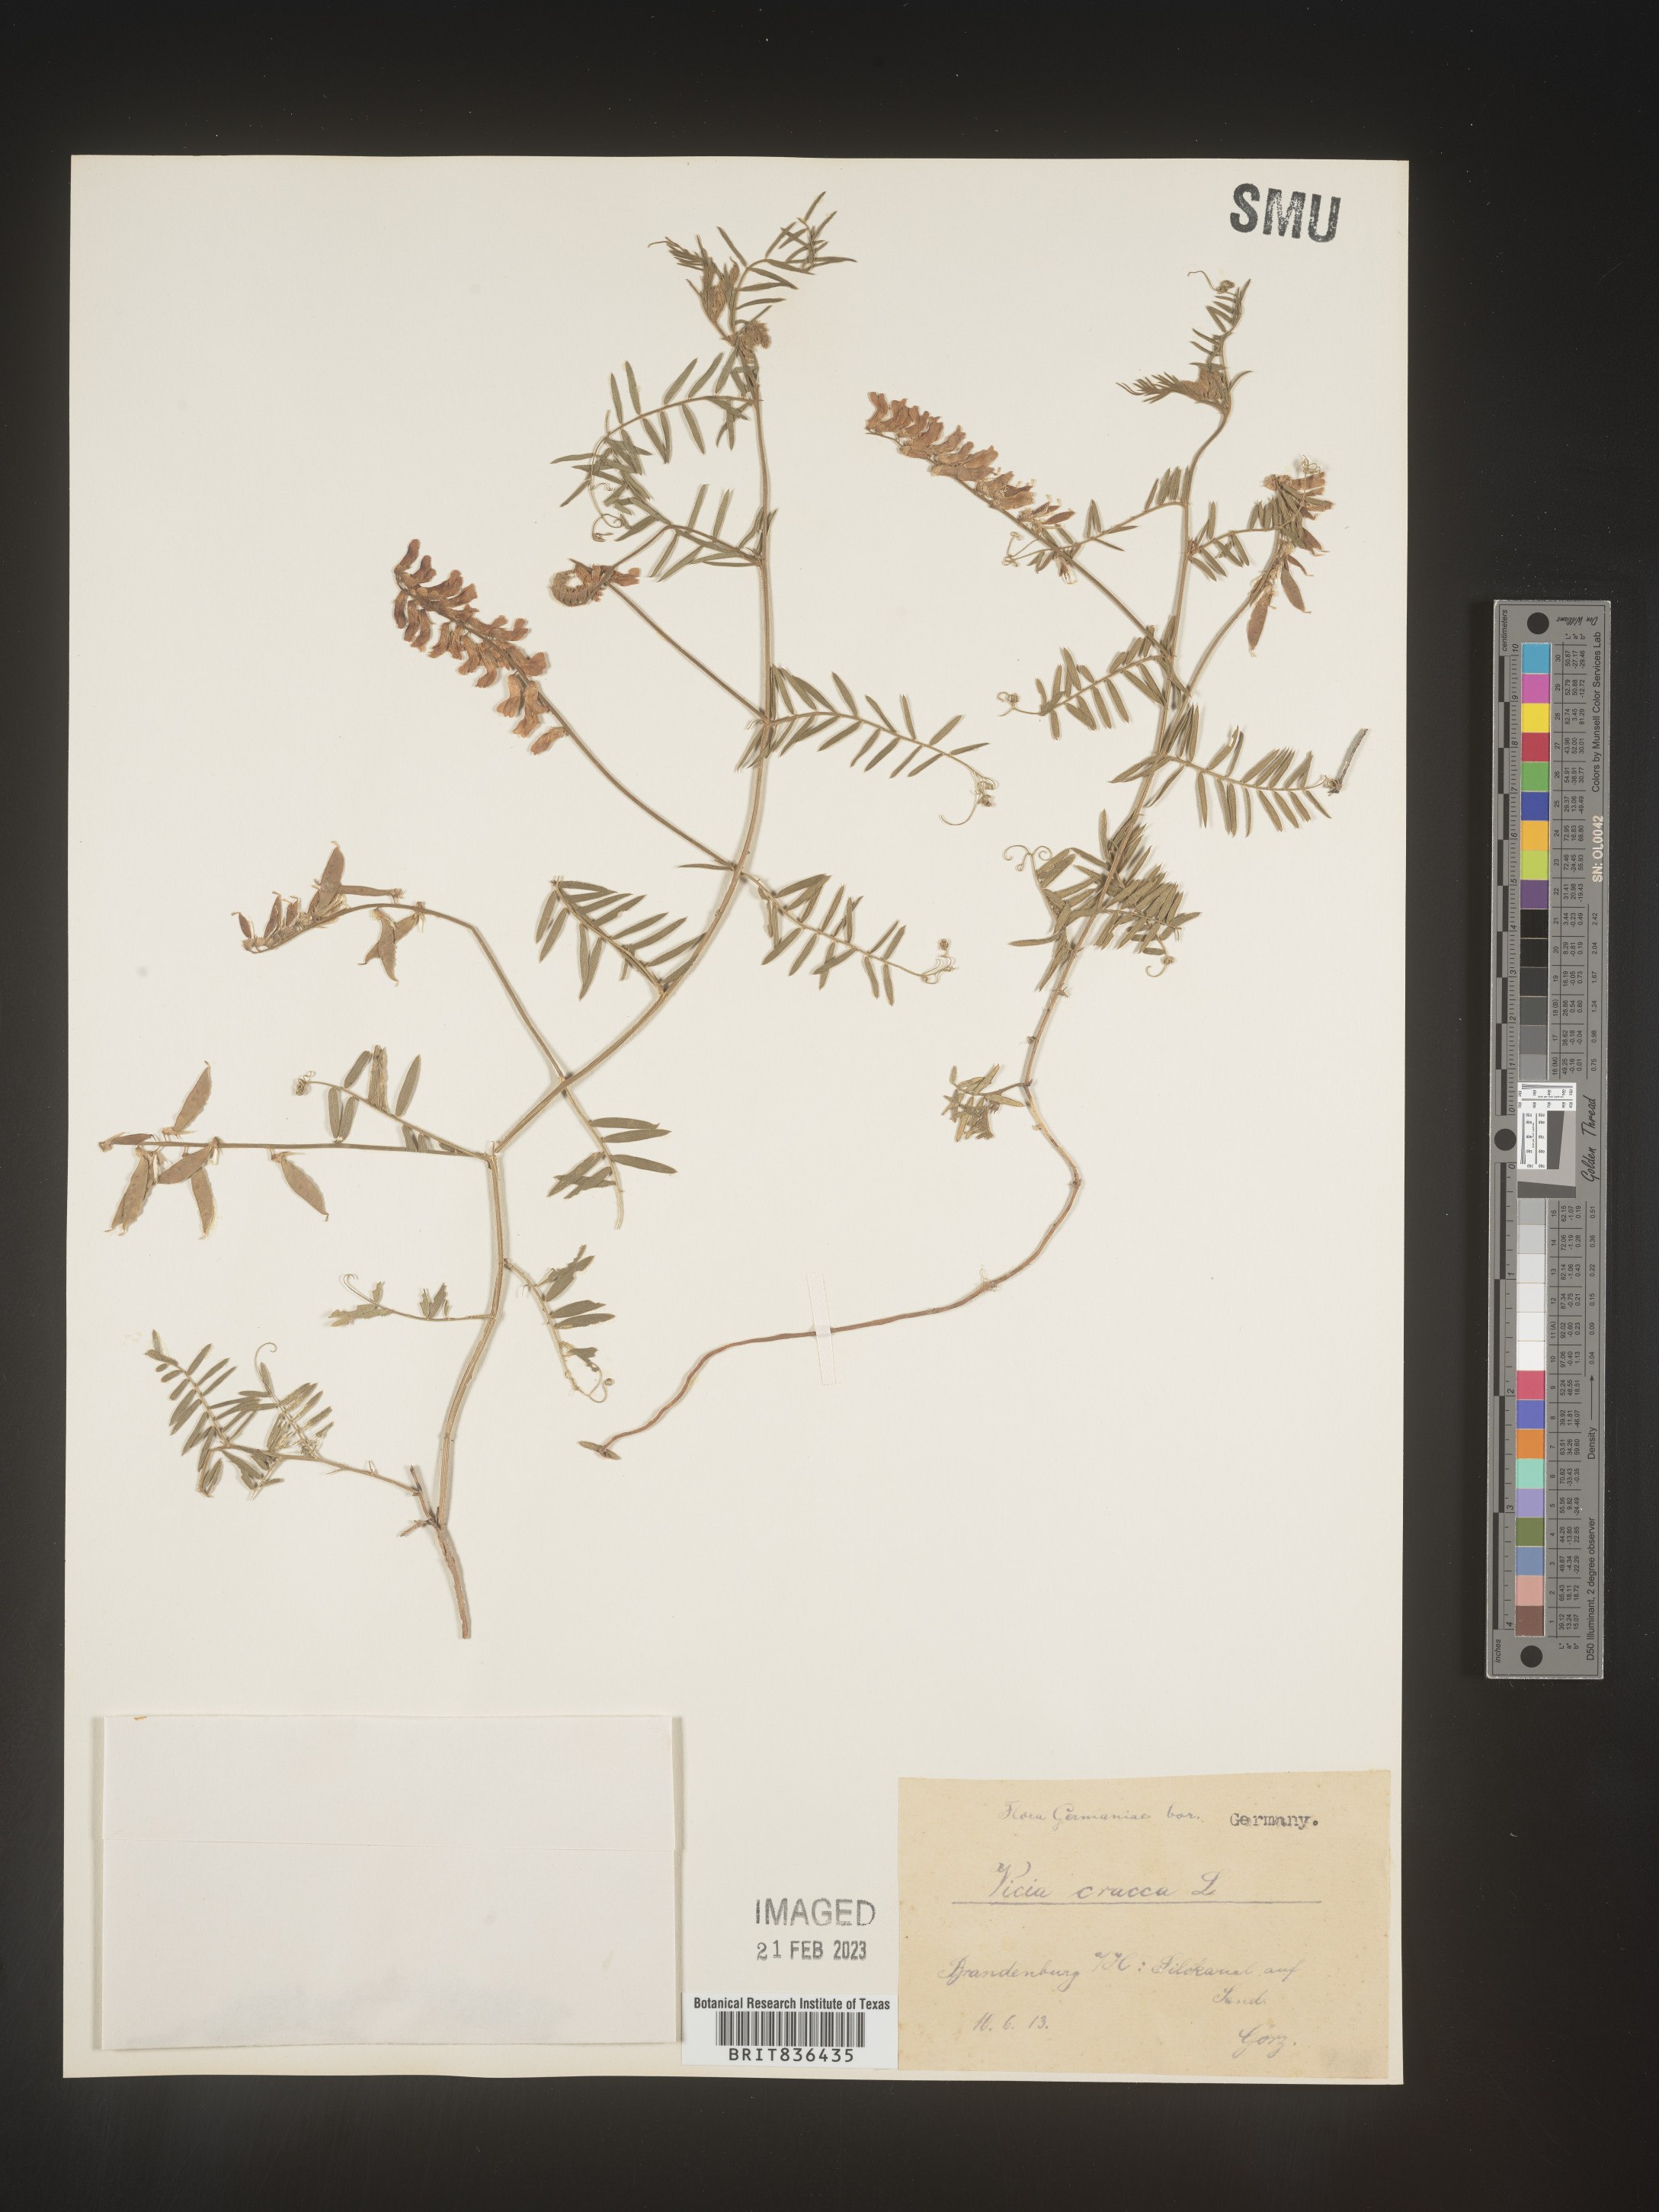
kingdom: Plantae
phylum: Tracheophyta
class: Magnoliopsida
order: Fabales
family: Fabaceae
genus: Vicia
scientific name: Vicia
